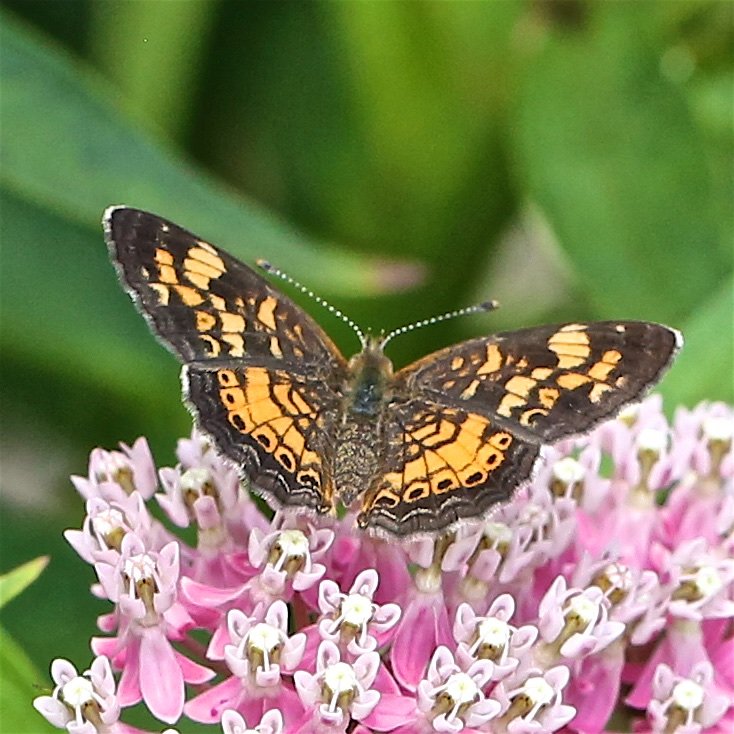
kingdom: Animalia
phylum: Arthropoda
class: Insecta
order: Lepidoptera
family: Nymphalidae
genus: Phyciodes
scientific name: Phyciodes tharos
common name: Pearl Crescent
